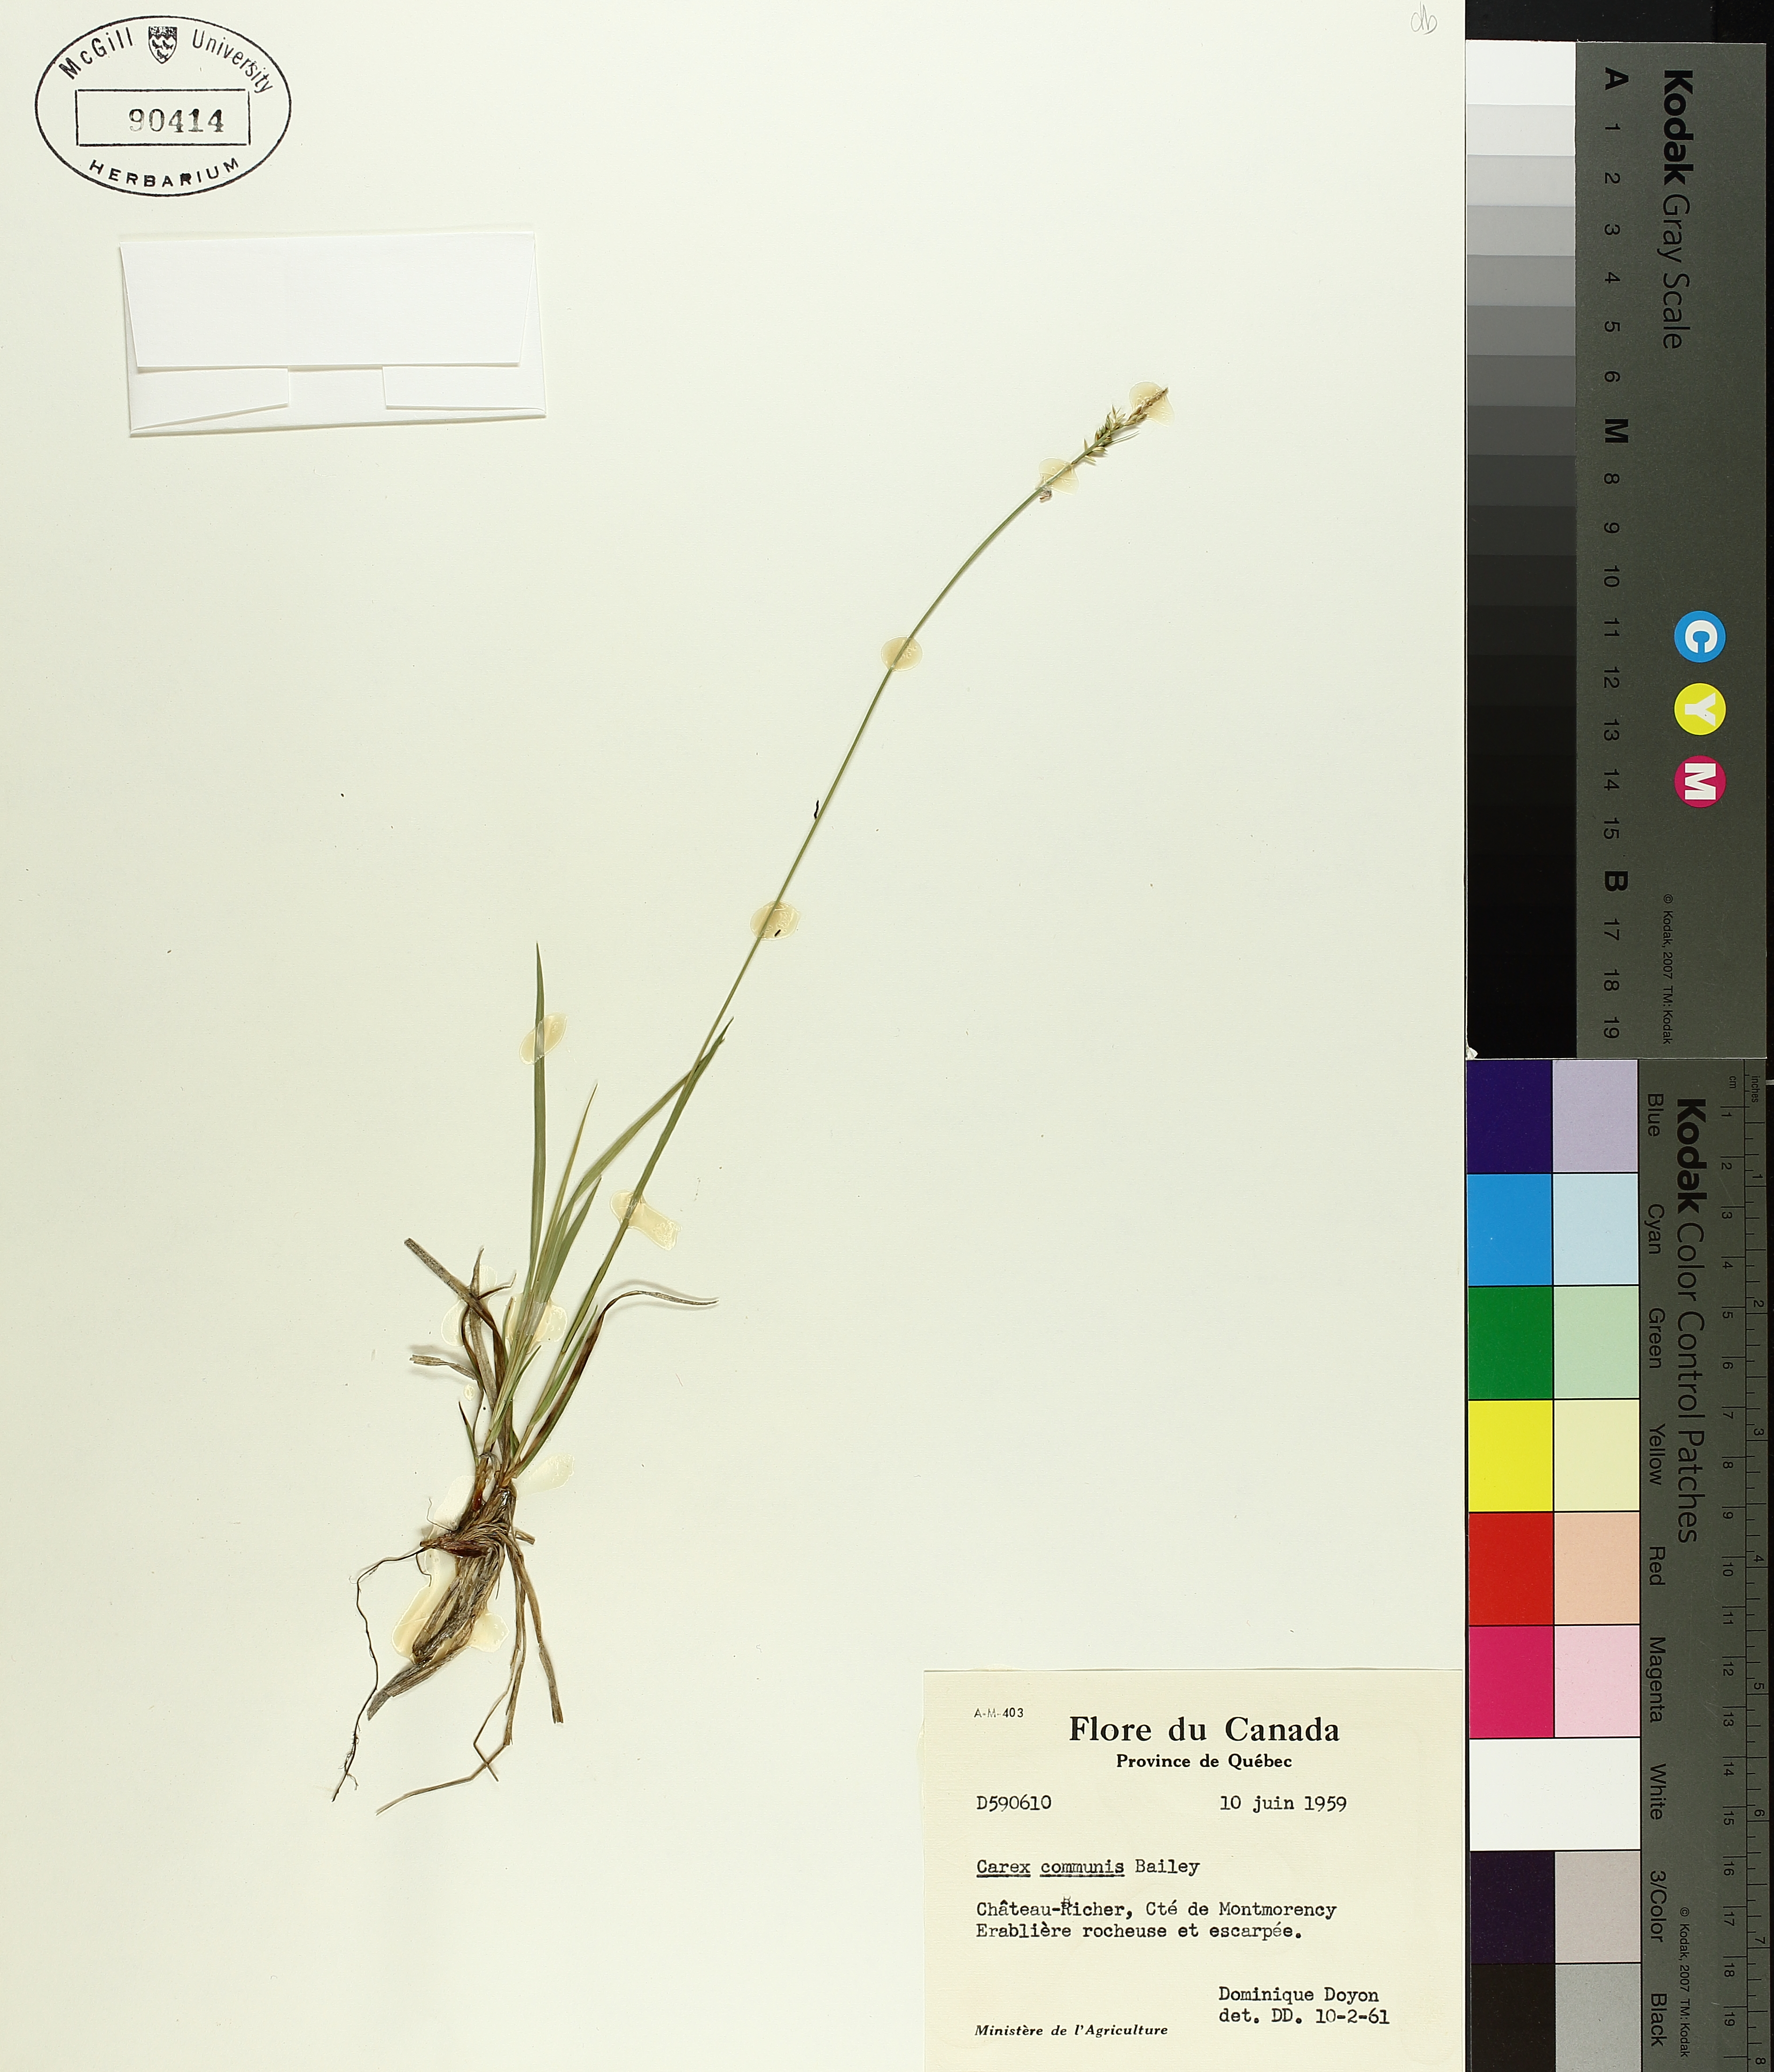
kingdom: Plantae
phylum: Tracheophyta
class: Liliopsida
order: Poales
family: Cyperaceae
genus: Carex
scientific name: Carex communis
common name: Colonial oak sedge
